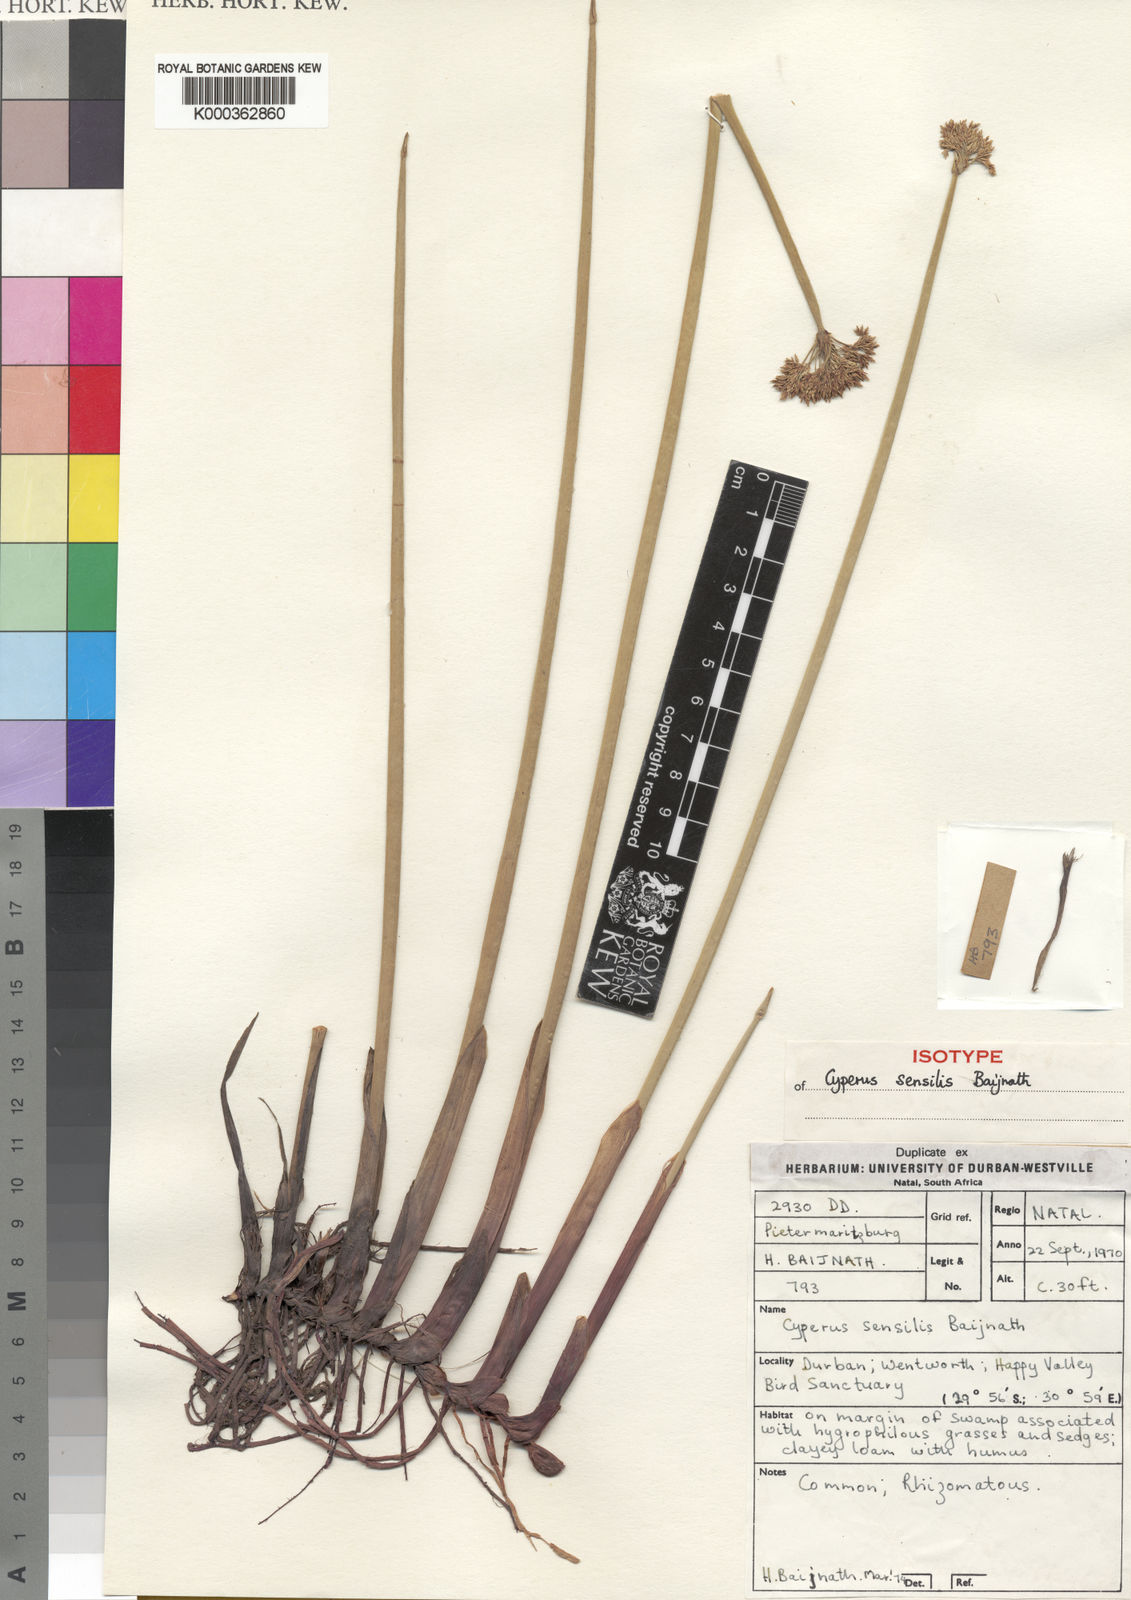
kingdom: Plantae
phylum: Tracheophyta
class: Liliopsida
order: Poales
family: Cyperaceae
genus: Cyperus
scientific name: Cyperus sensilis
